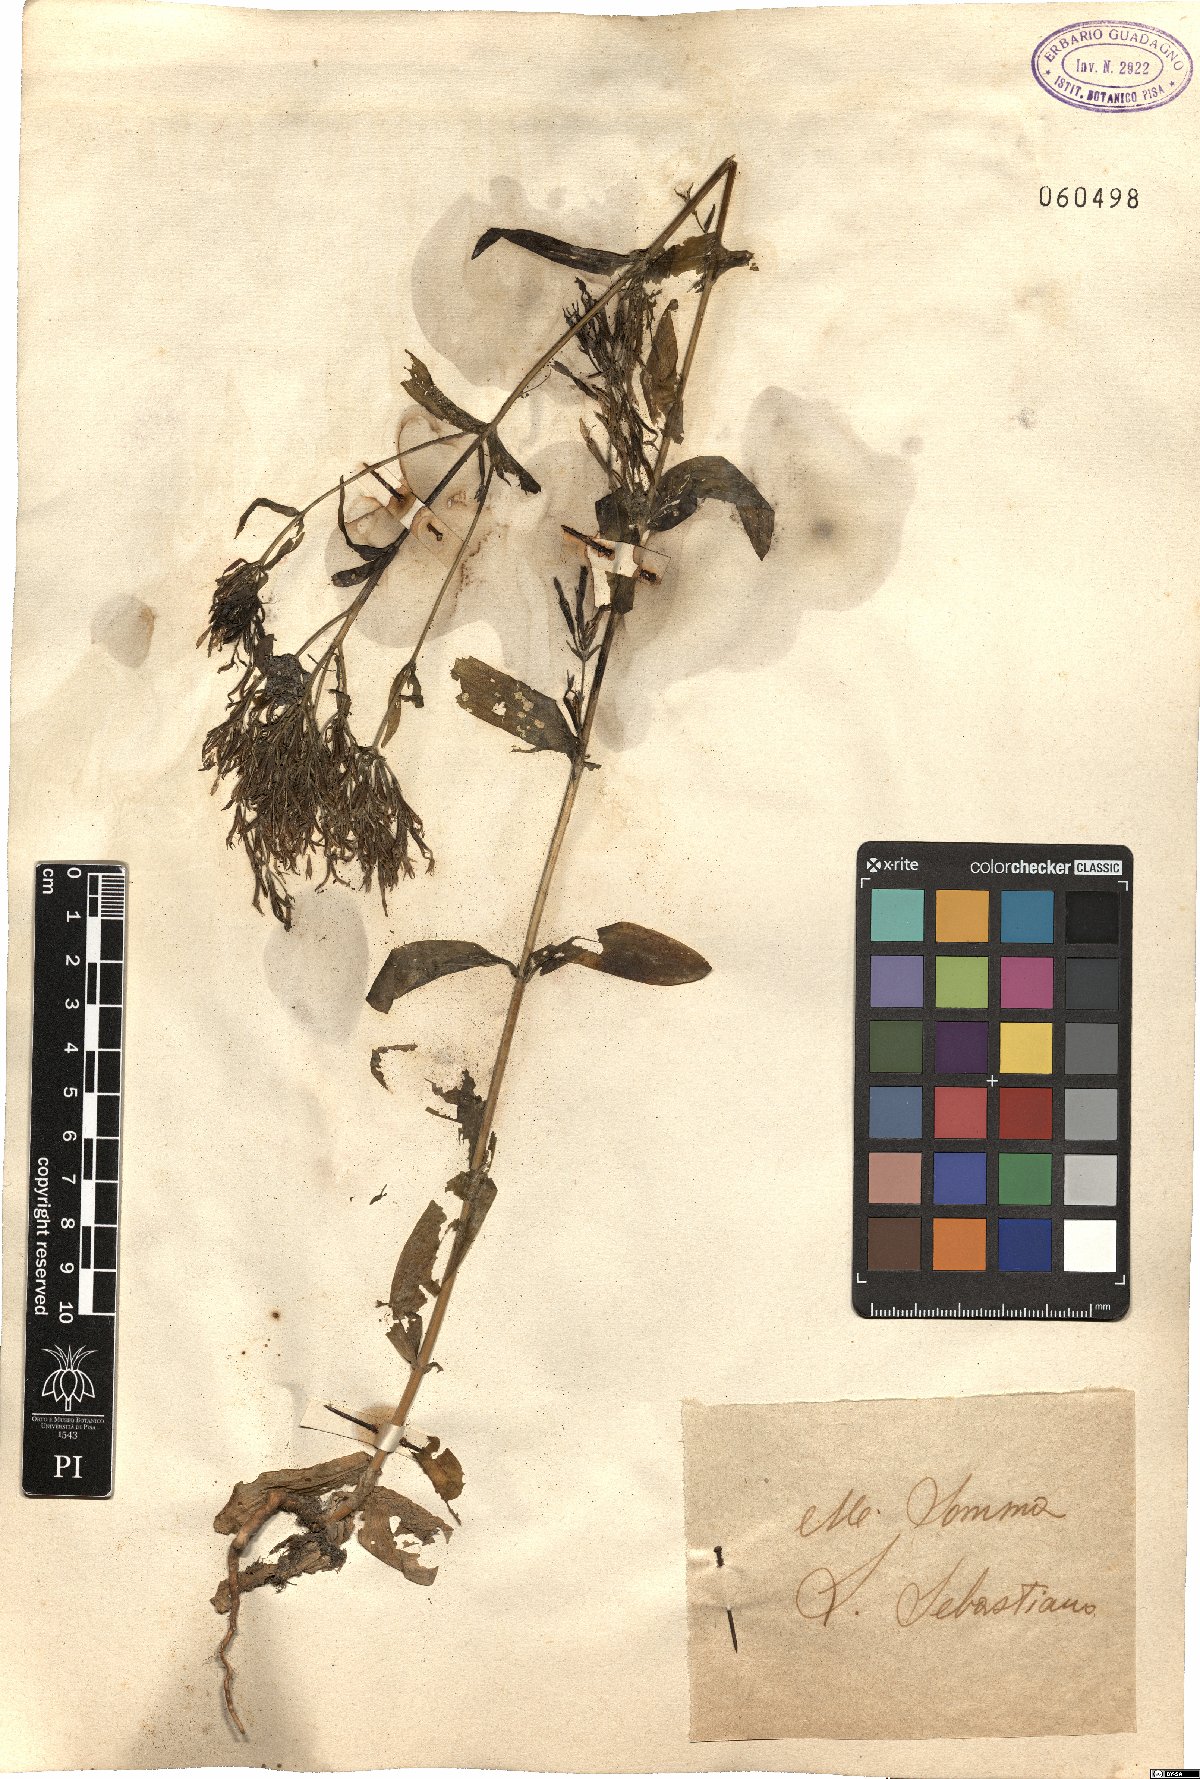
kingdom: Plantae
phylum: Tracheophyta
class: Magnoliopsida
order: Gentianales
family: Gentianaceae
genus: Centaurium
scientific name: Centaurium erythraea
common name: Common centaury
